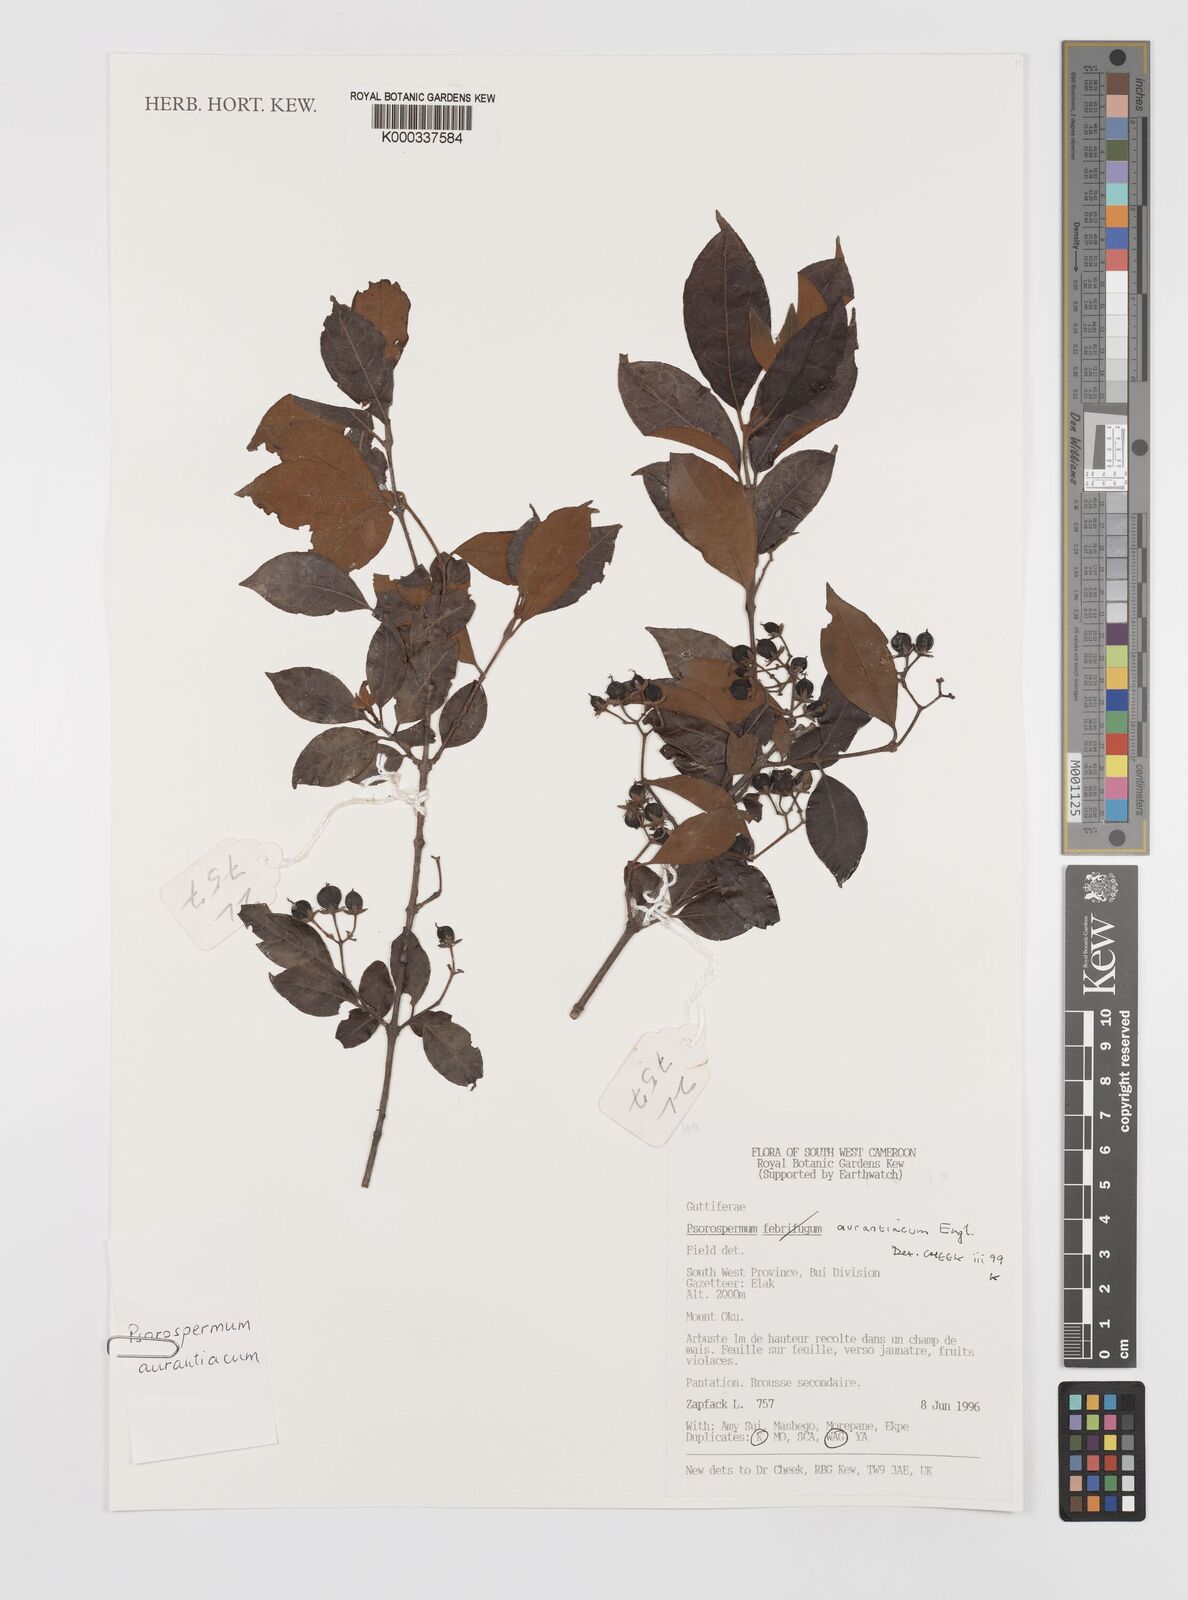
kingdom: Plantae
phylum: Tracheophyta
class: Magnoliopsida
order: Malpighiales
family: Hypericaceae
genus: Psorospermum
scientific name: Psorospermum aurantiacum
